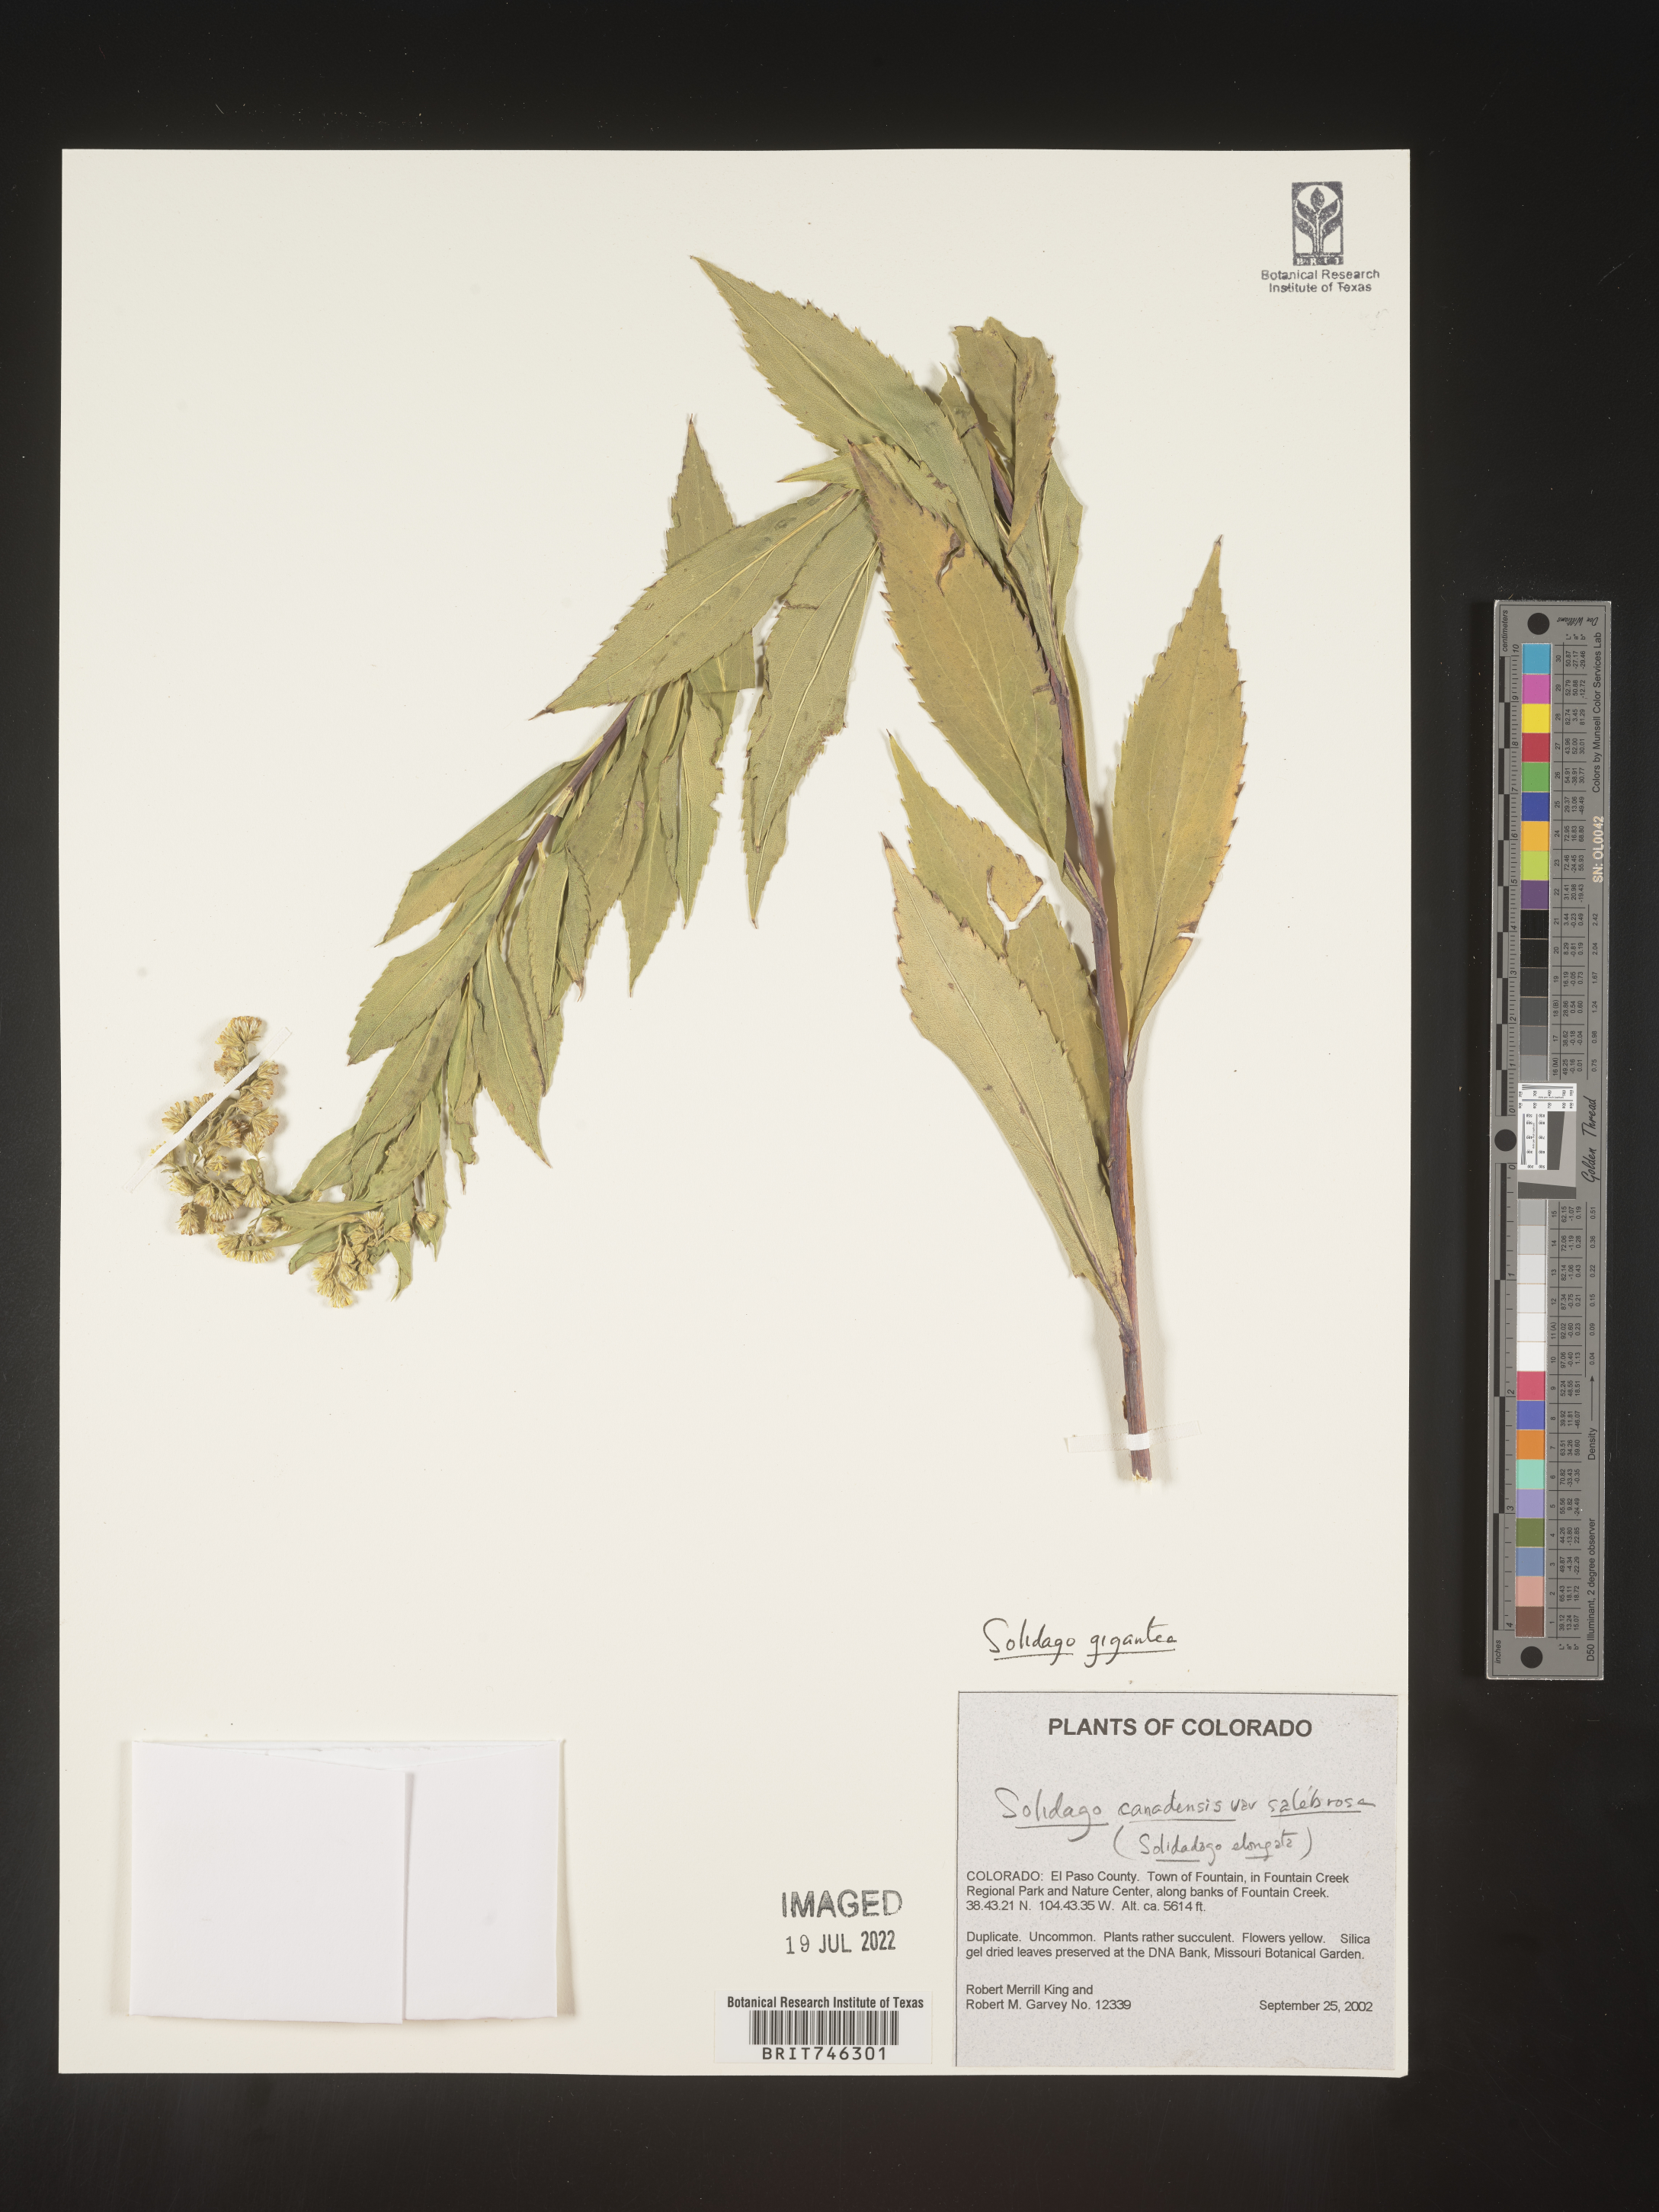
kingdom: Plantae
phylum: Tracheophyta
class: Magnoliopsida
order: Asterales
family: Asteraceae
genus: Solidago
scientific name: Solidago gigantea
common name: Giant goldenrod
